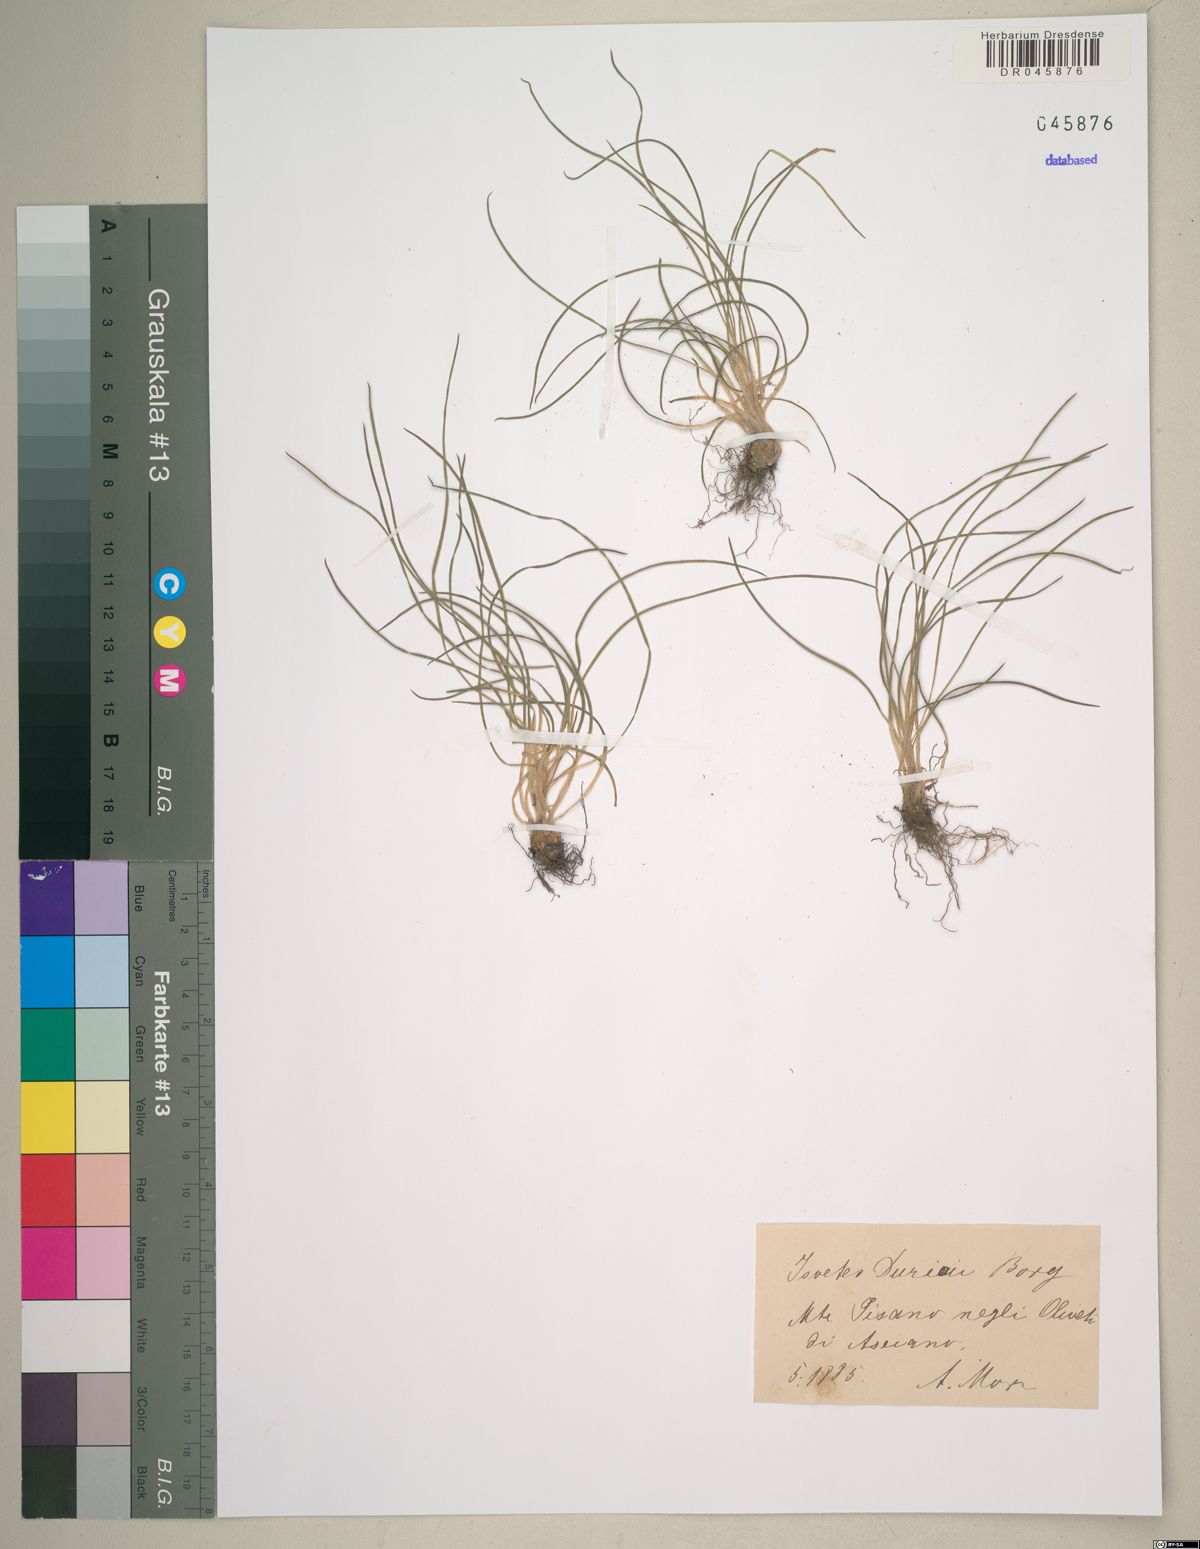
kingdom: Plantae
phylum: Tracheophyta
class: Lycopodiopsida
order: Isoetales
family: Isoetaceae
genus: Isoetes
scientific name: Isoetes duriei
